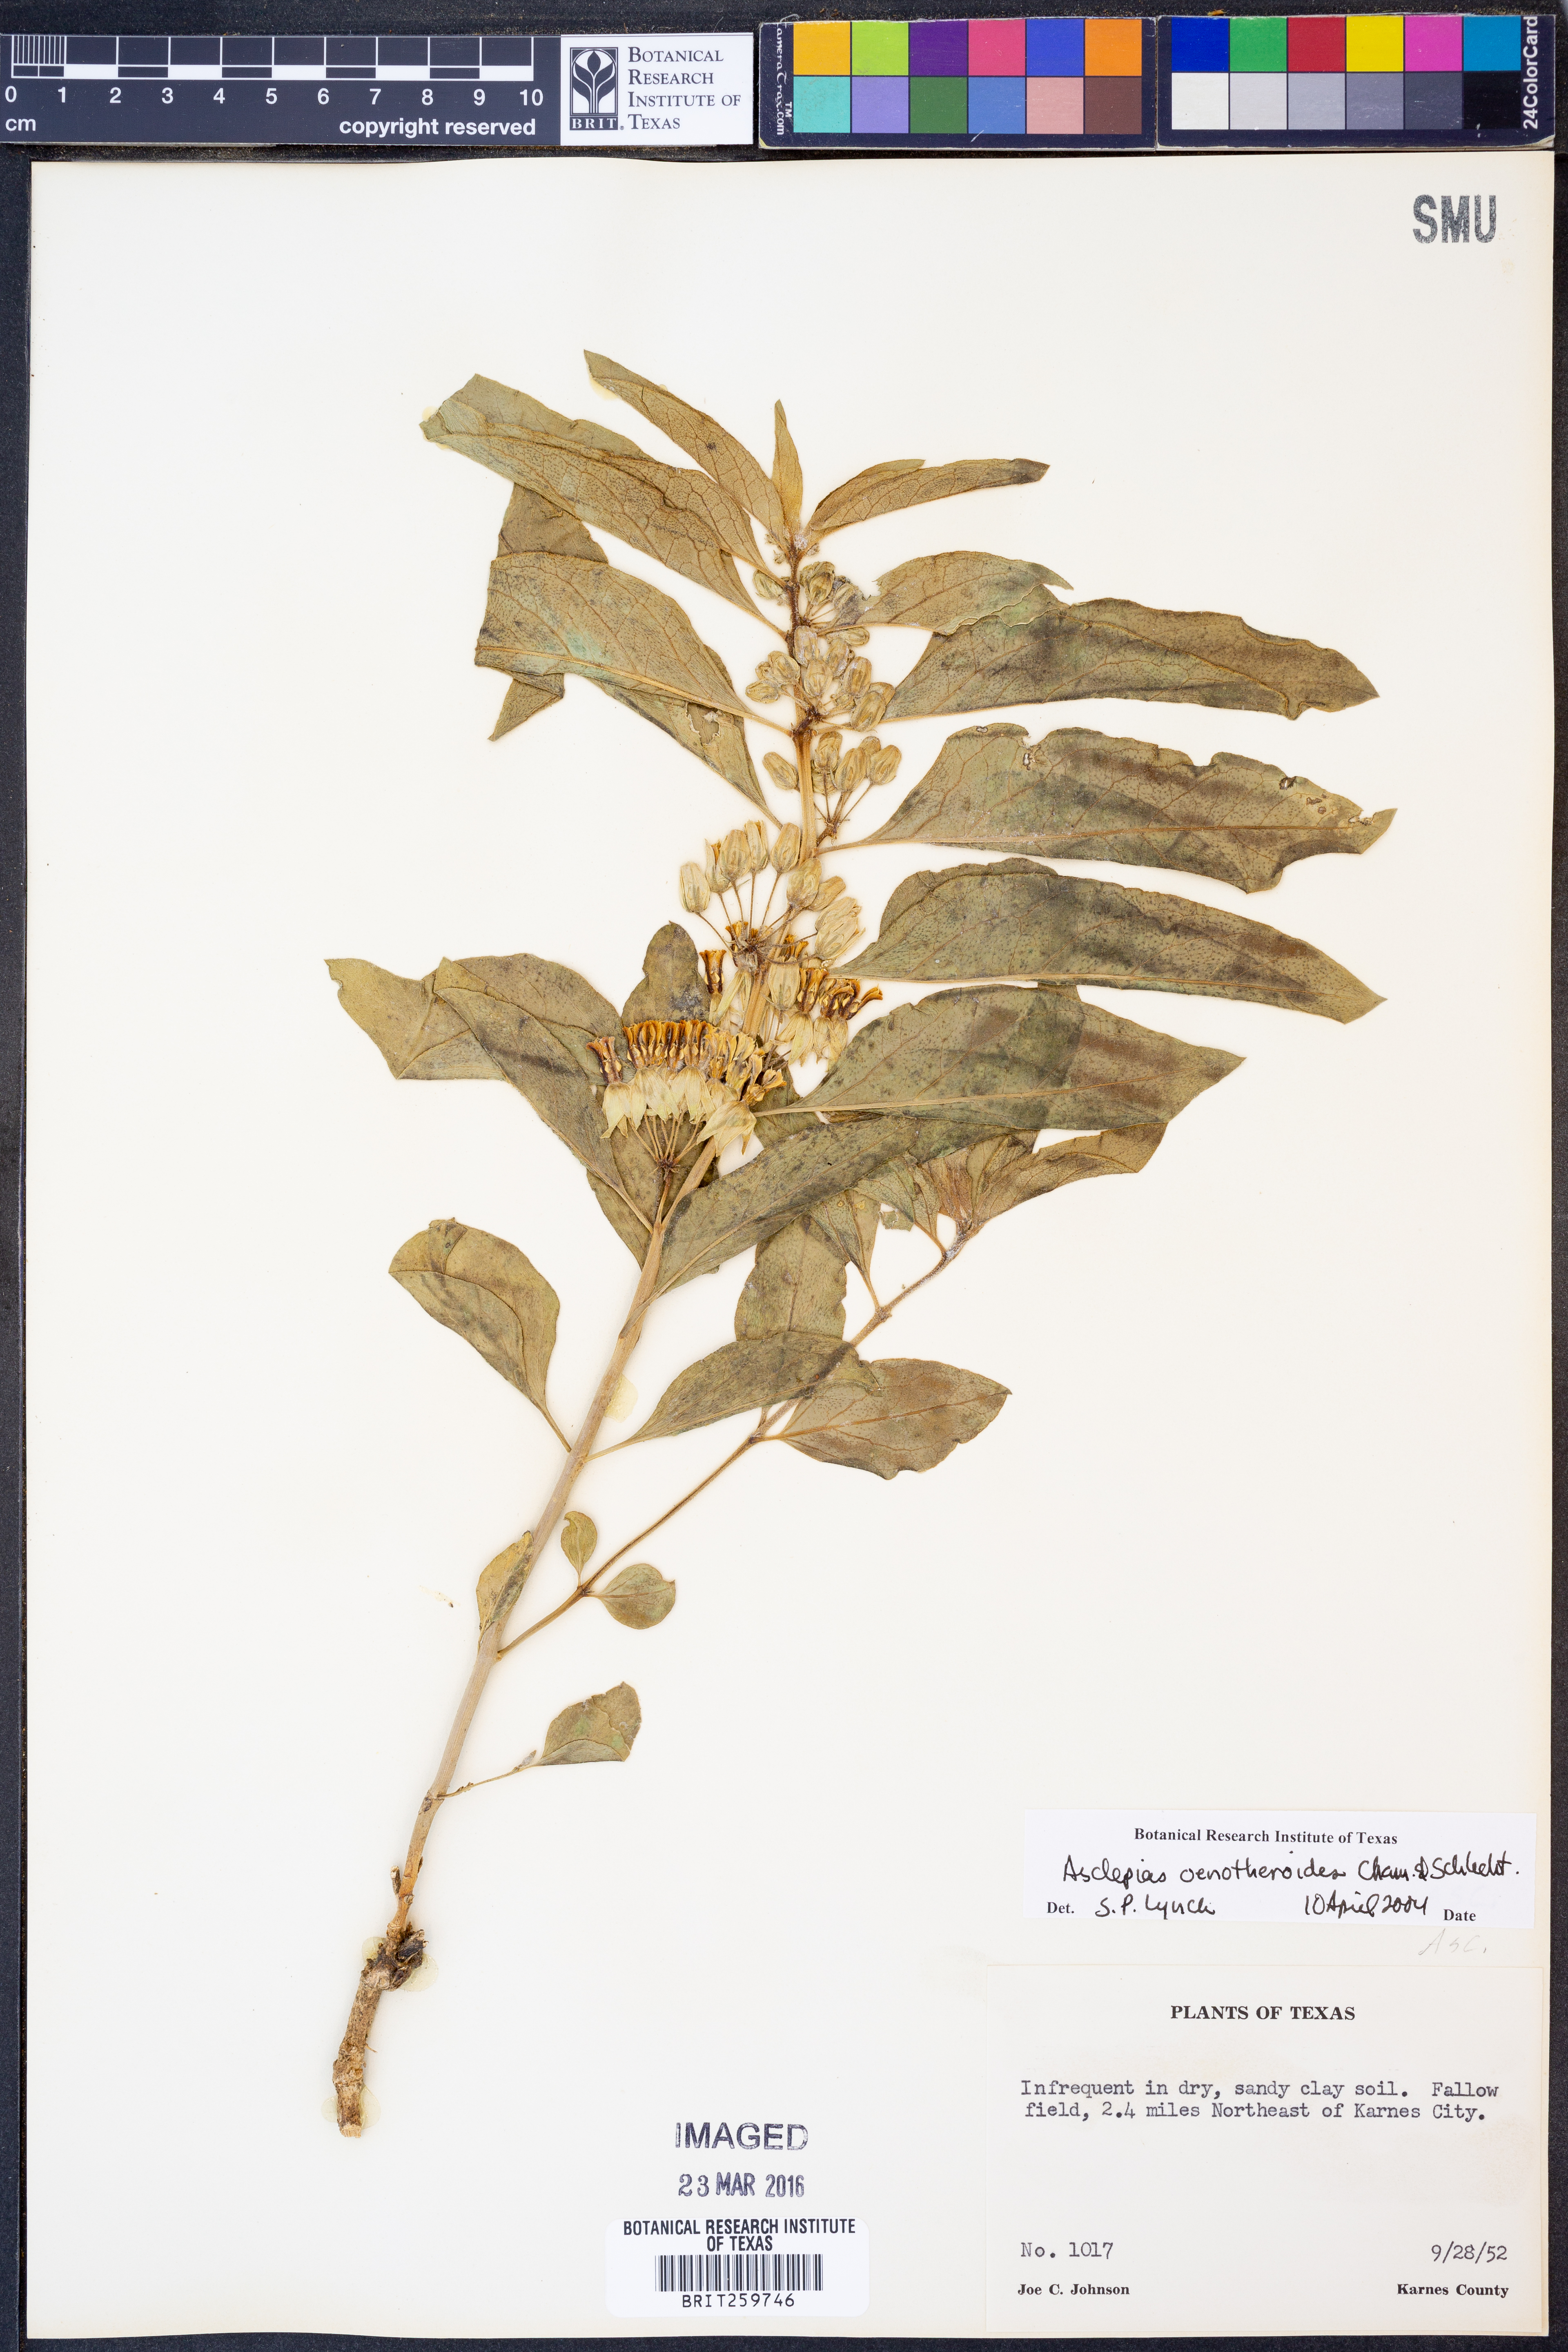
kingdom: Plantae
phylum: Tracheophyta
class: Magnoliopsida
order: Gentianales
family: Apocynaceae
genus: Asclepias
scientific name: Asclepias oenotheroides
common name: Zizotes milkweed
